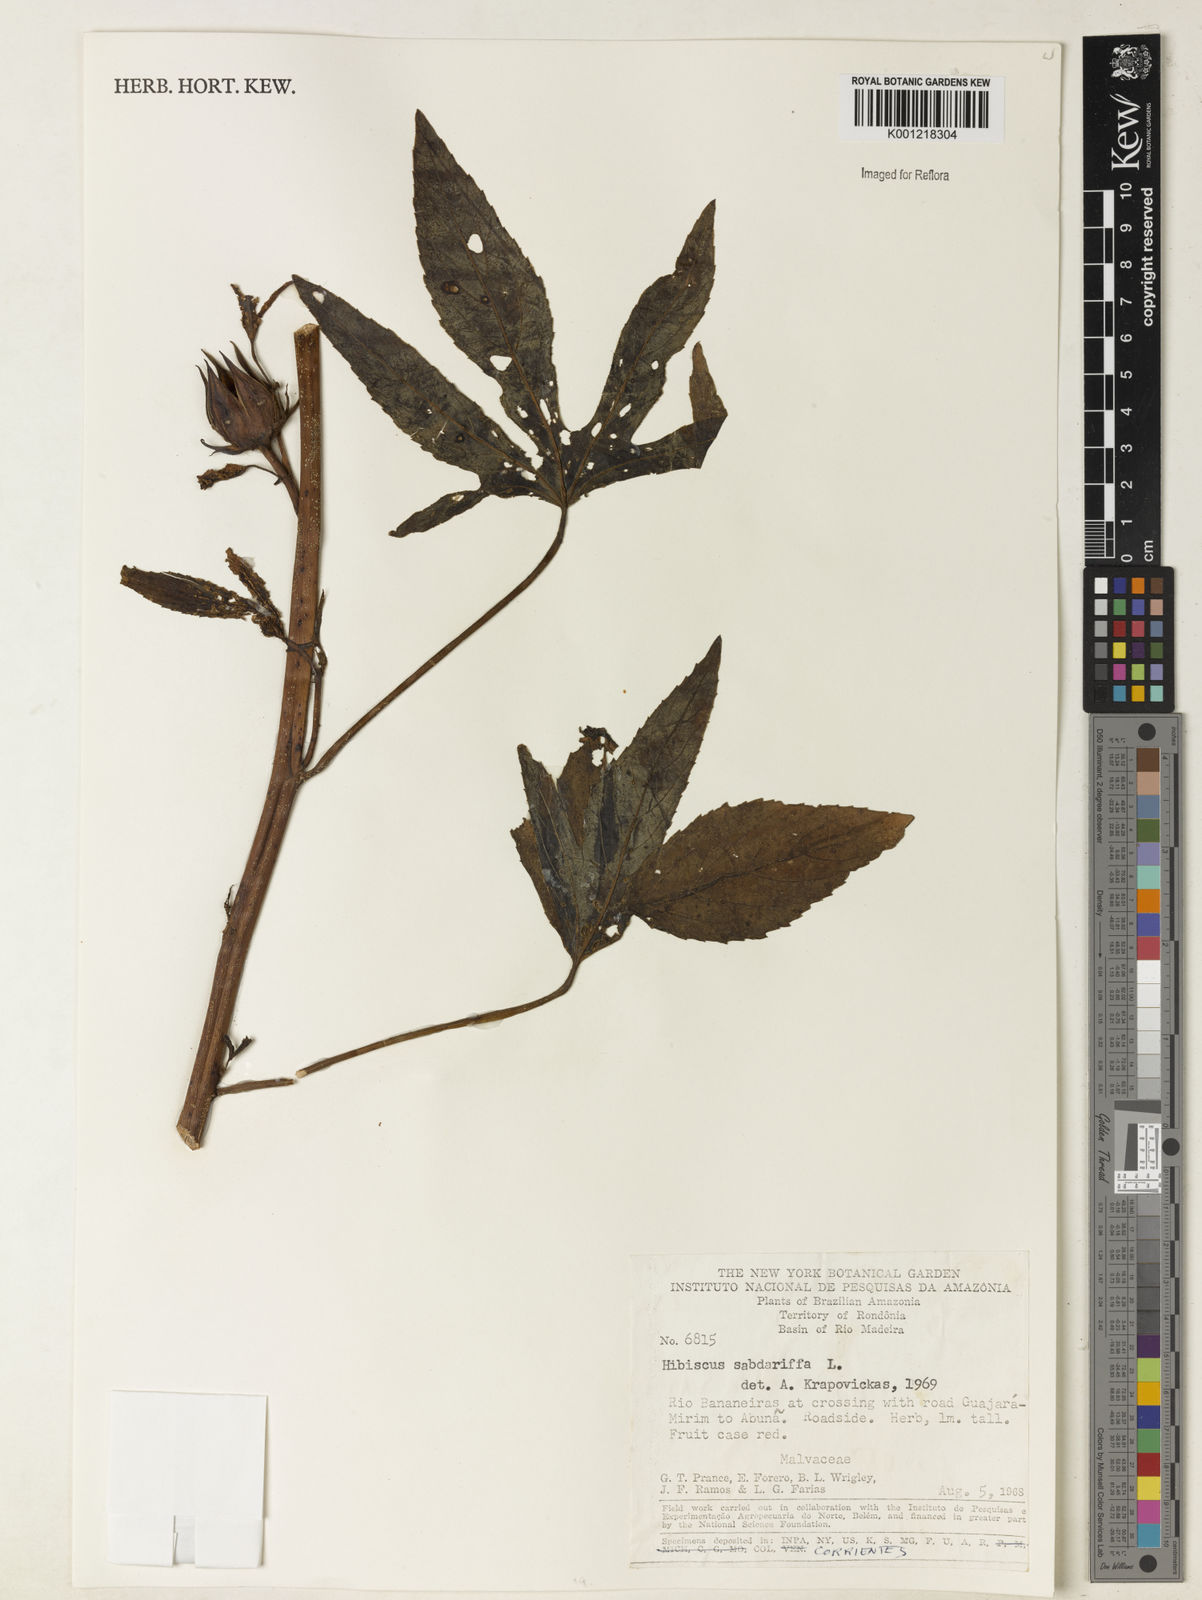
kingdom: Plantae
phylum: Tracheophyta
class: Magnoliopsida
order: Malvales
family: Malvaceae
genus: Hibiscus
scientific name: Hibiscus sabdariffa
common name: Roselle
